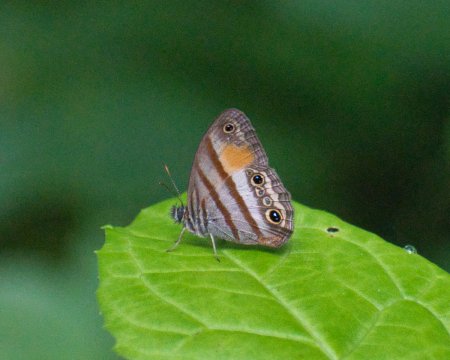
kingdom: Animalia
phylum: Arthropoda
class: Insecta
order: Lepidoptera
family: Nymphalidae
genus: Euptychia
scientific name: Euptychia Cissia pseudoconfusa
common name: Gold-stained Satyr
